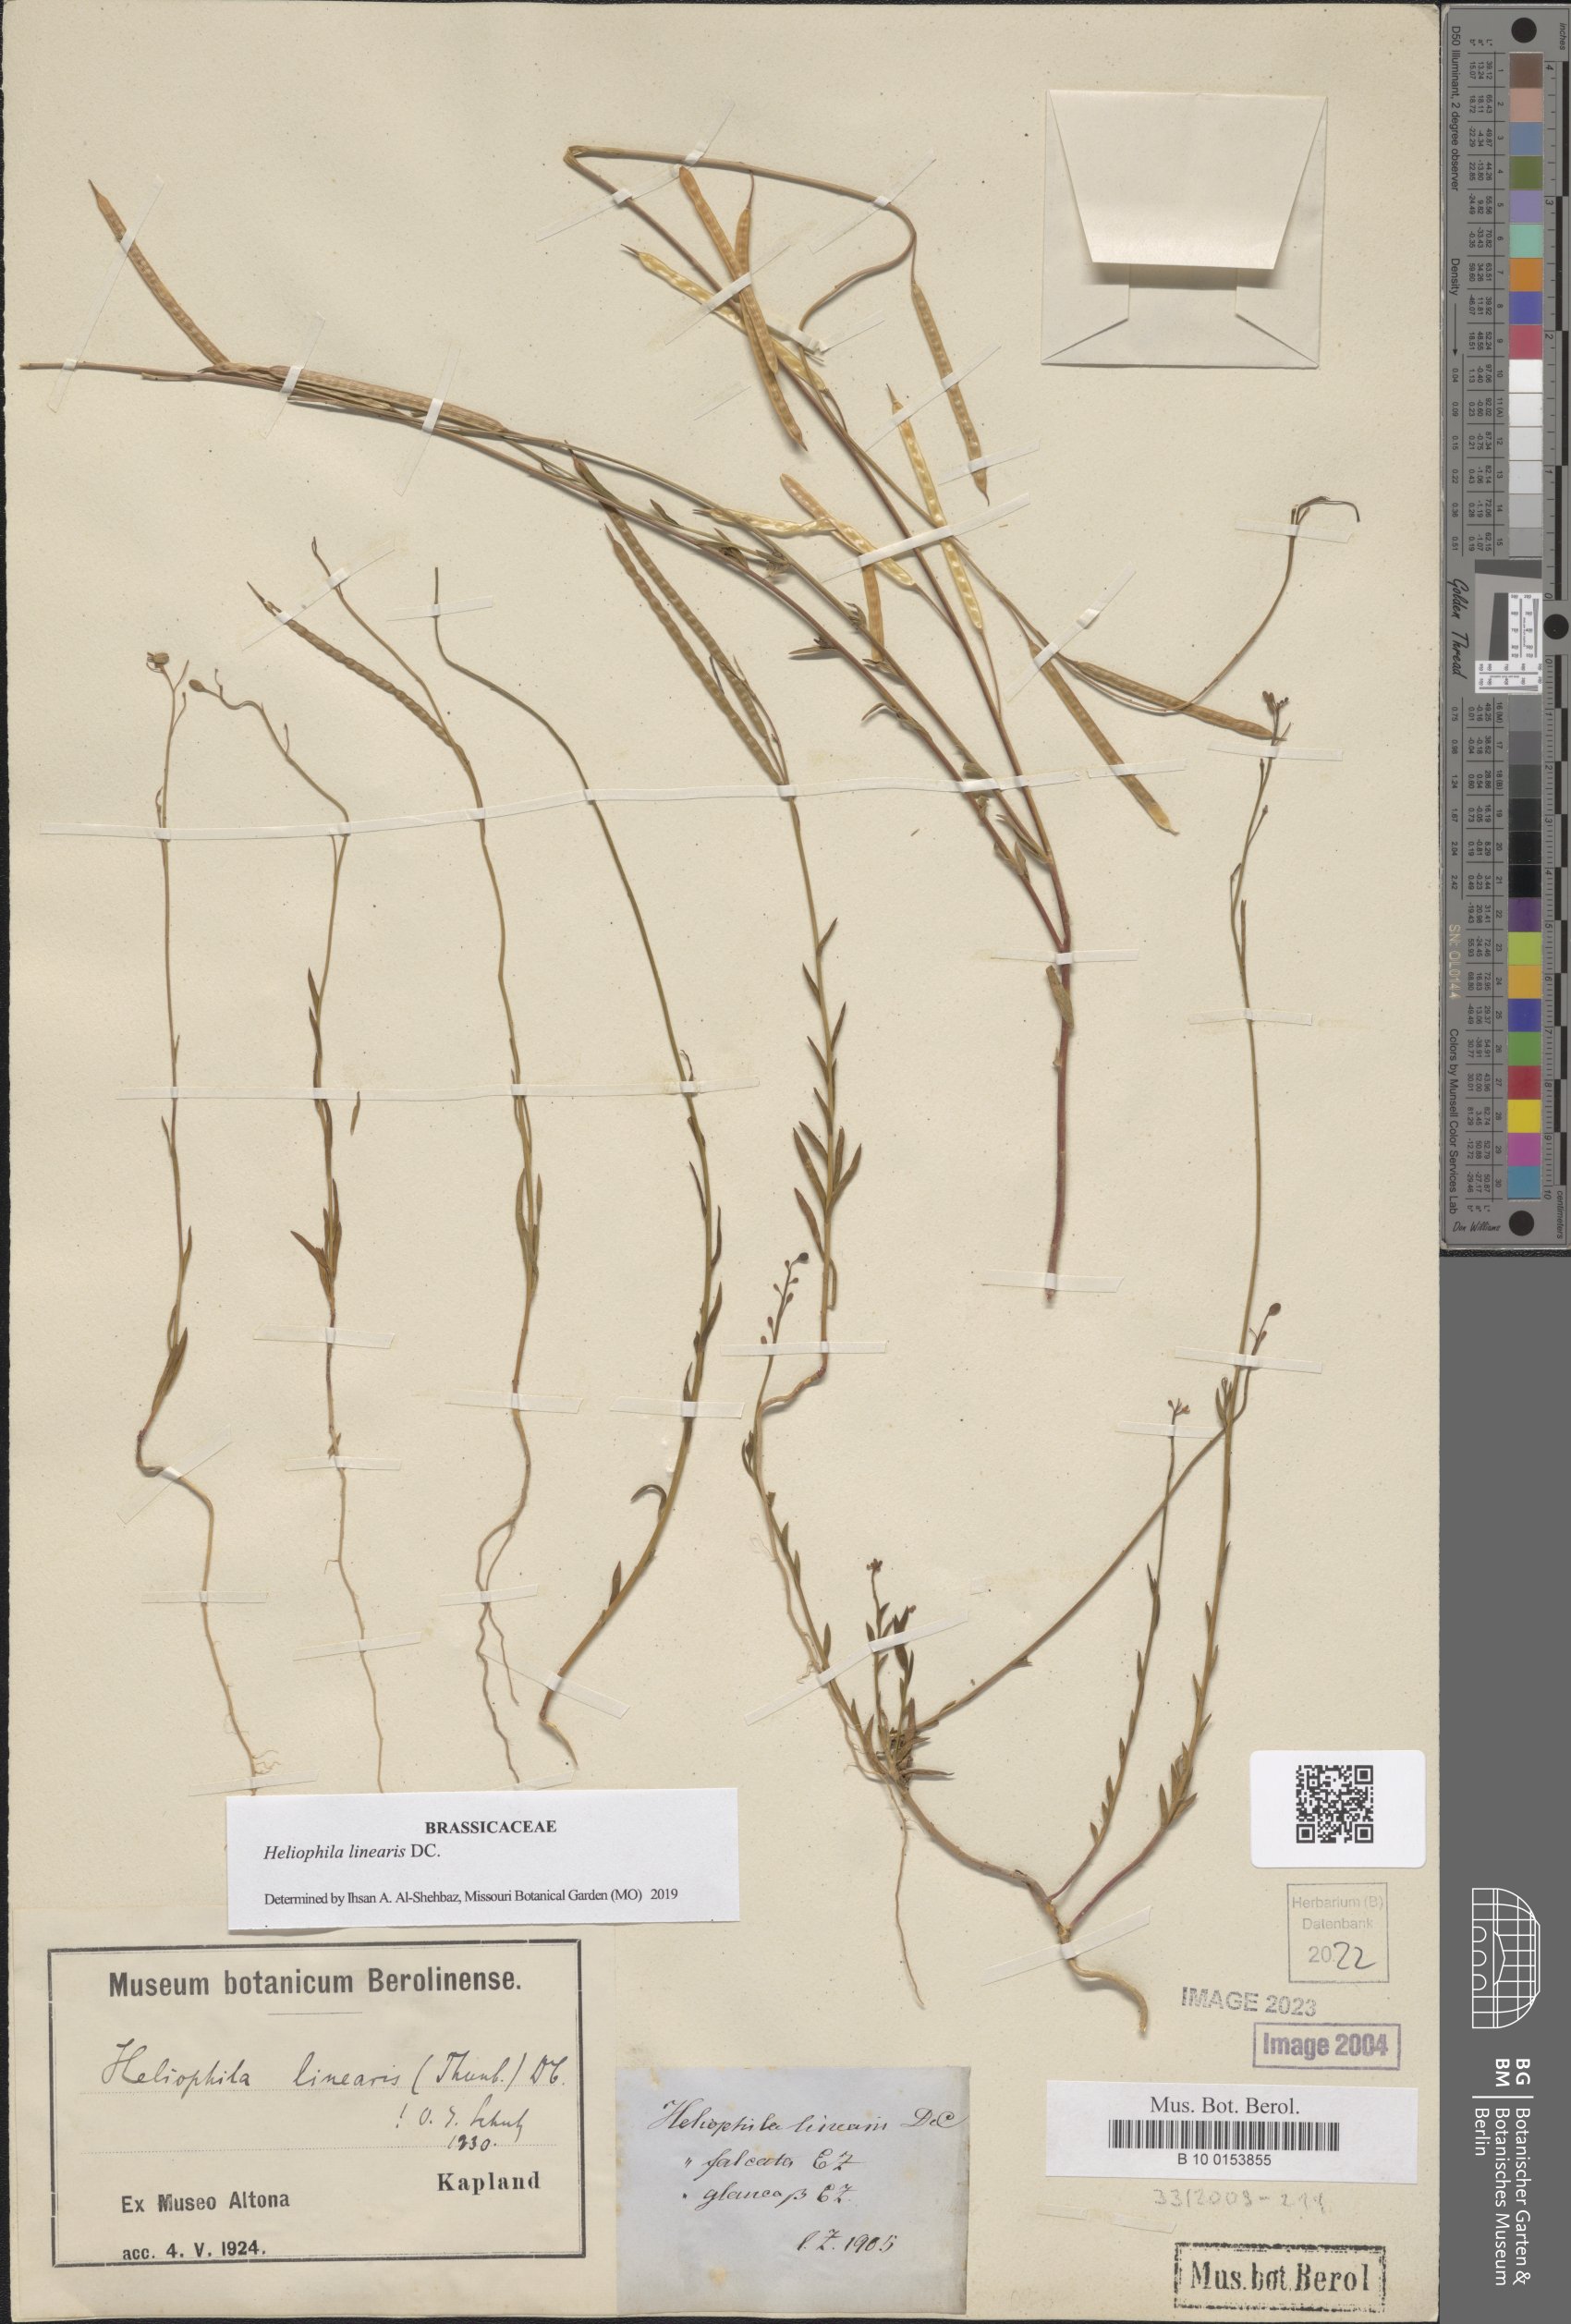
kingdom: Plantae
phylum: Tracheophyta
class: Magnoliopsida
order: Brassicales
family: Brassicaceae
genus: Heliophila
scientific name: Heliophila linearis
